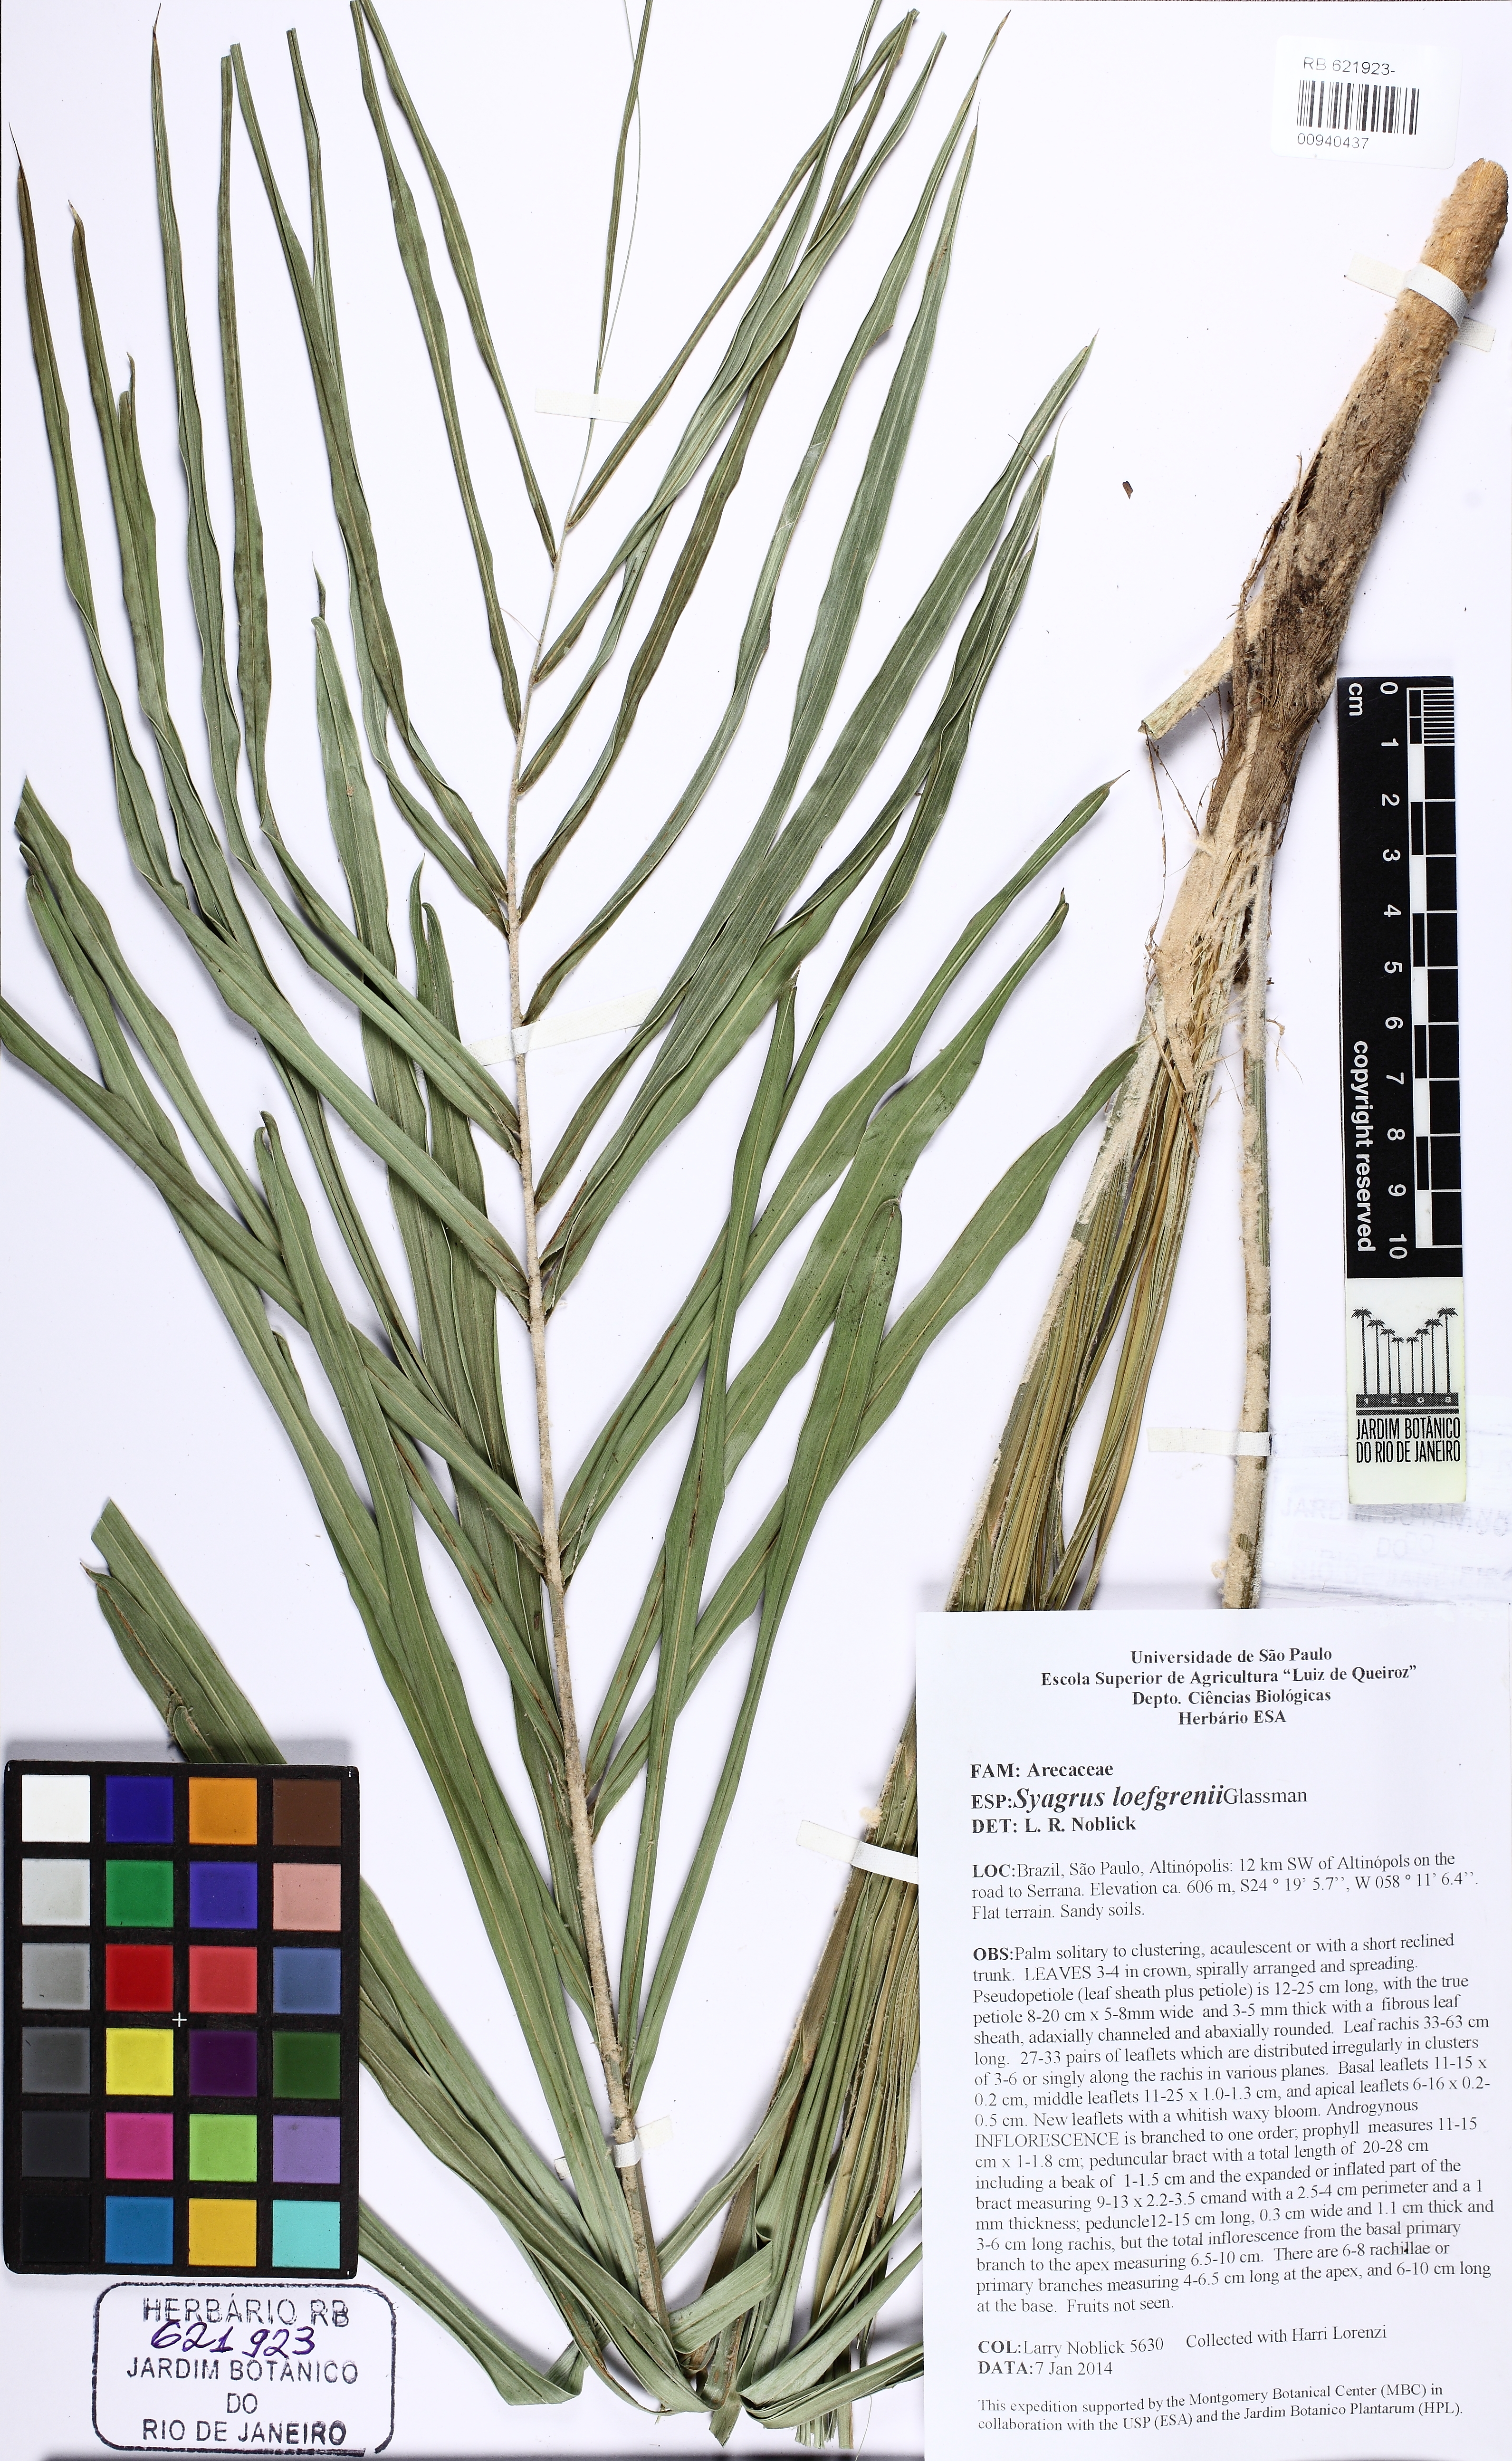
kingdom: Plantae
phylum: Tracheophyta
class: Liliopsida
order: Arecales
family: Arecaceae
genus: Syagrus
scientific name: Syagrus loefgrenii
